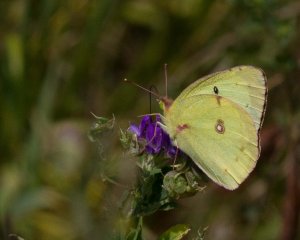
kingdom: Animalia
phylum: Arthropoda
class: Insecta
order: Lepidoptera
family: Pieridae
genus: Colias
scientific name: Colias philodice
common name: Clouded Sulphur
